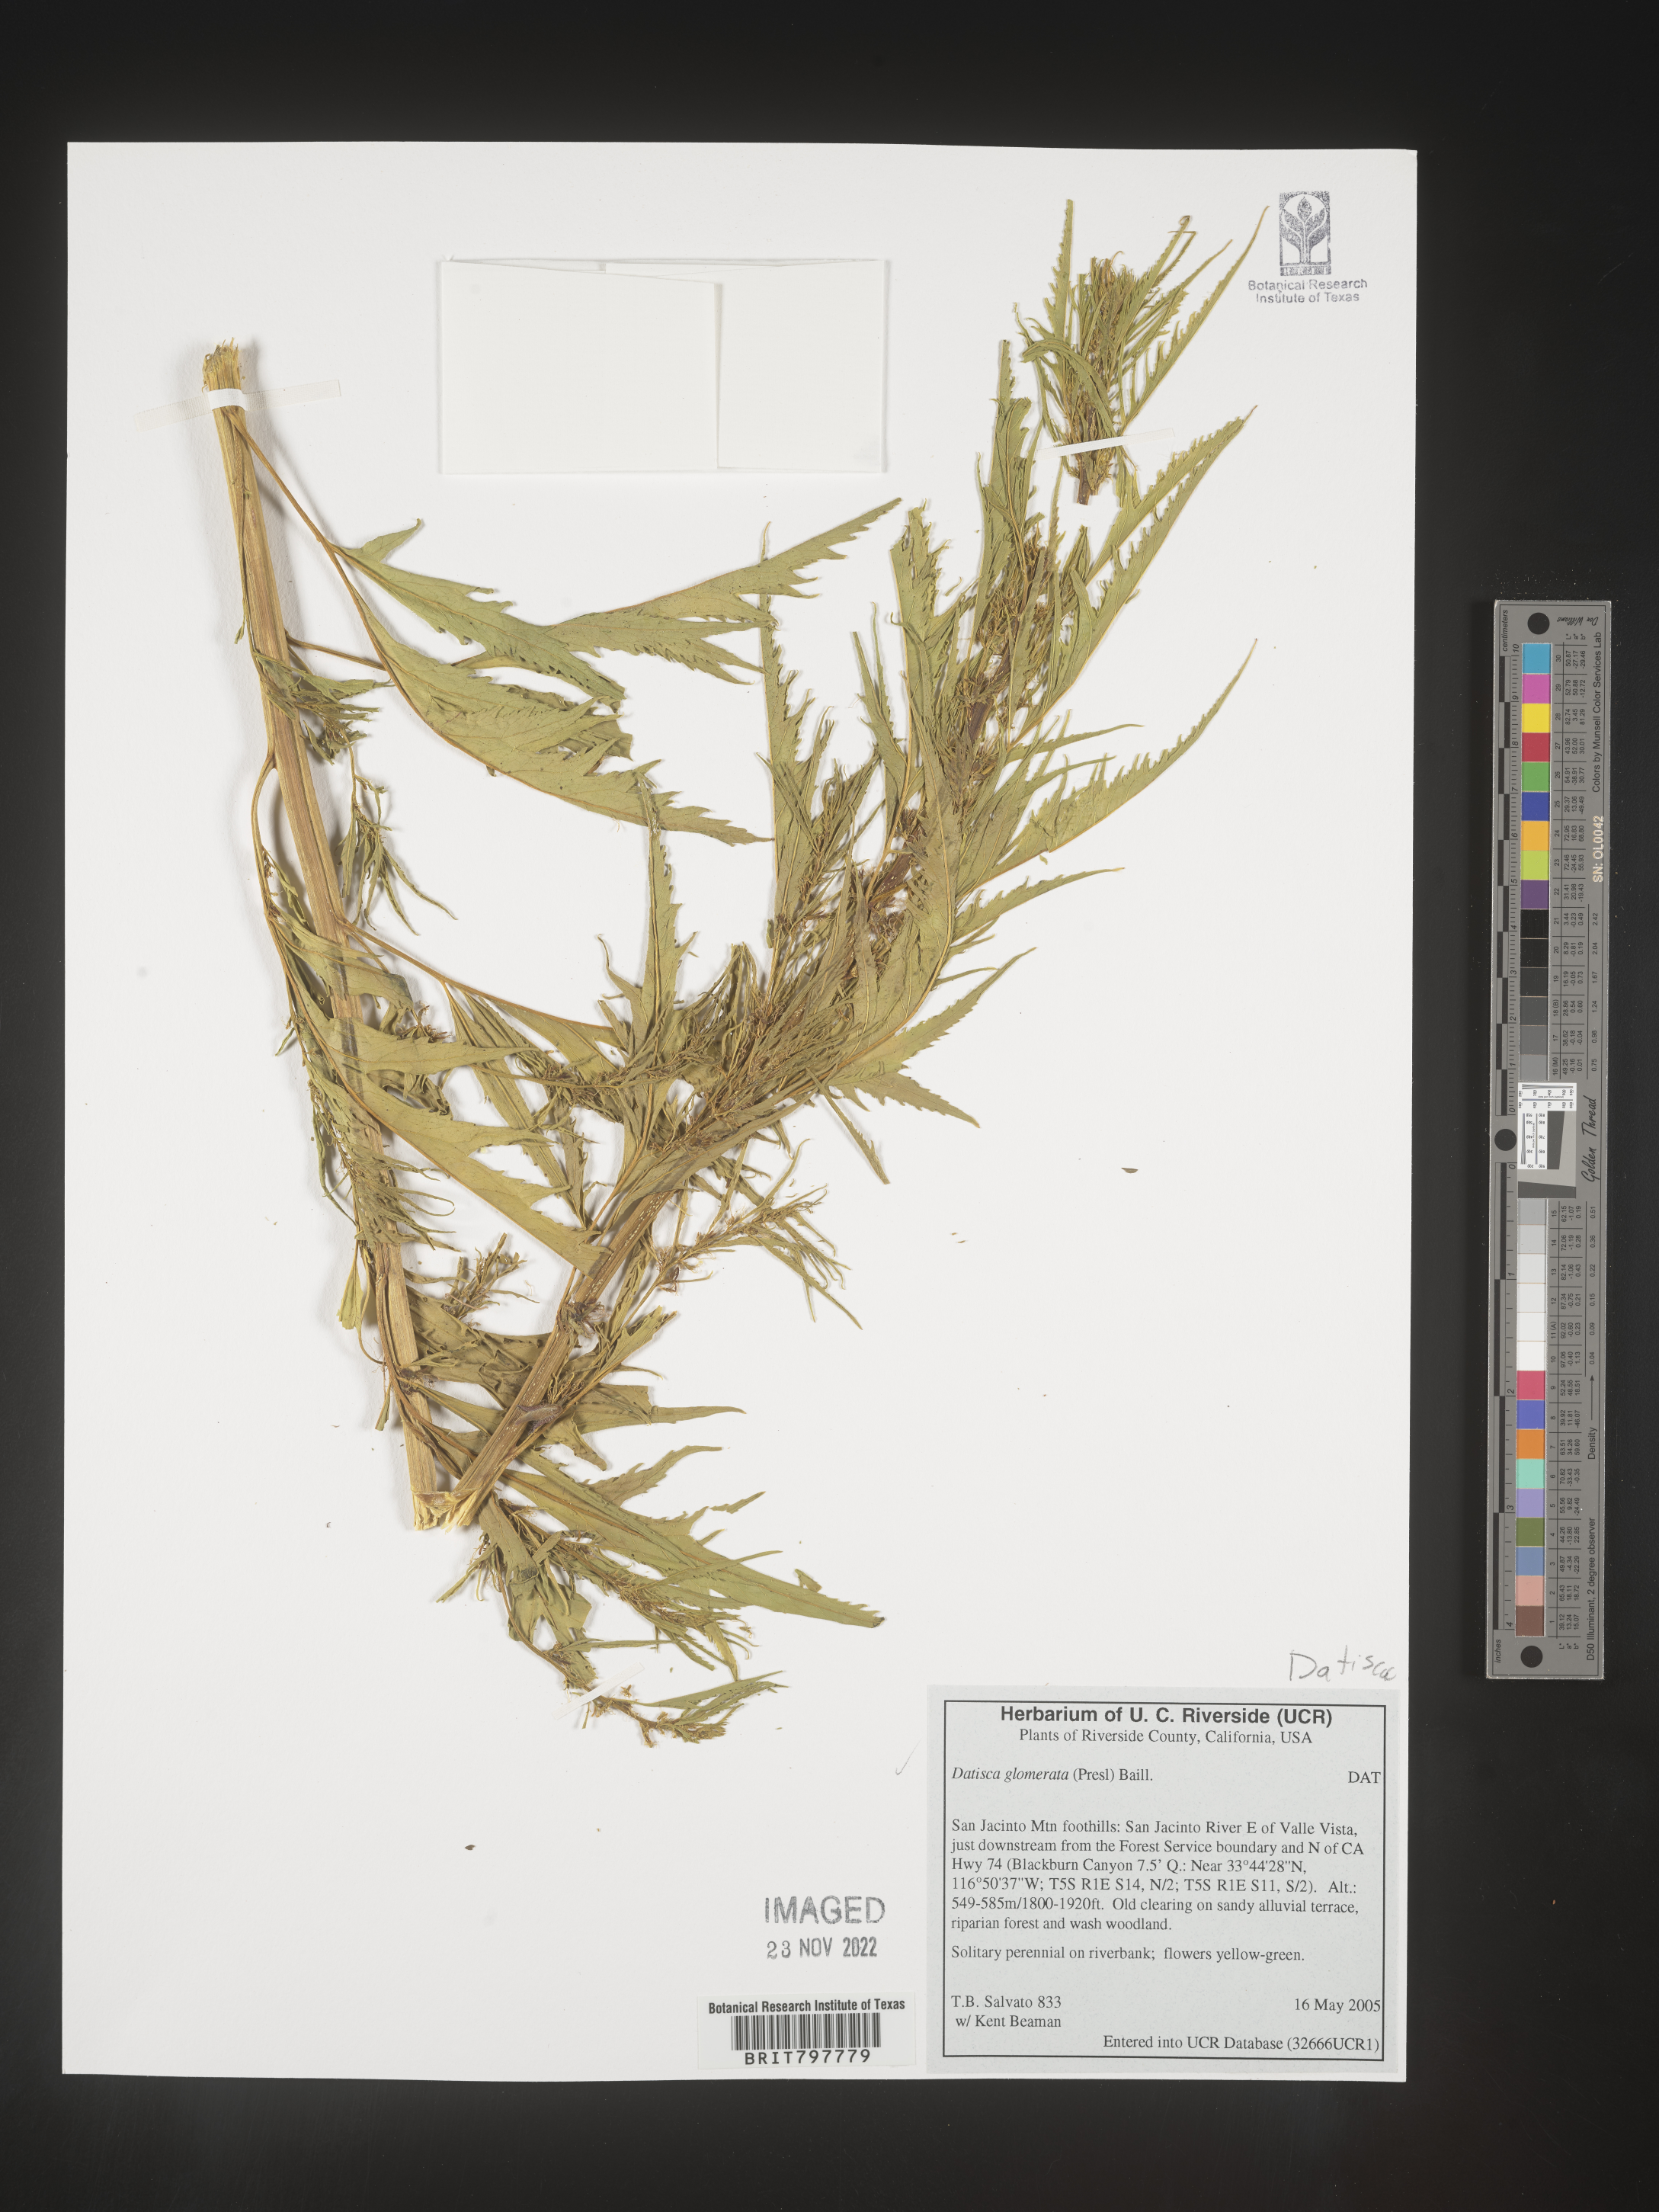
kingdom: Plantae
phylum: Tracheophyta
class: Magnoliopsida
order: Cucurbitales
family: Datiscaceae
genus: Datisca
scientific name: Datisca
